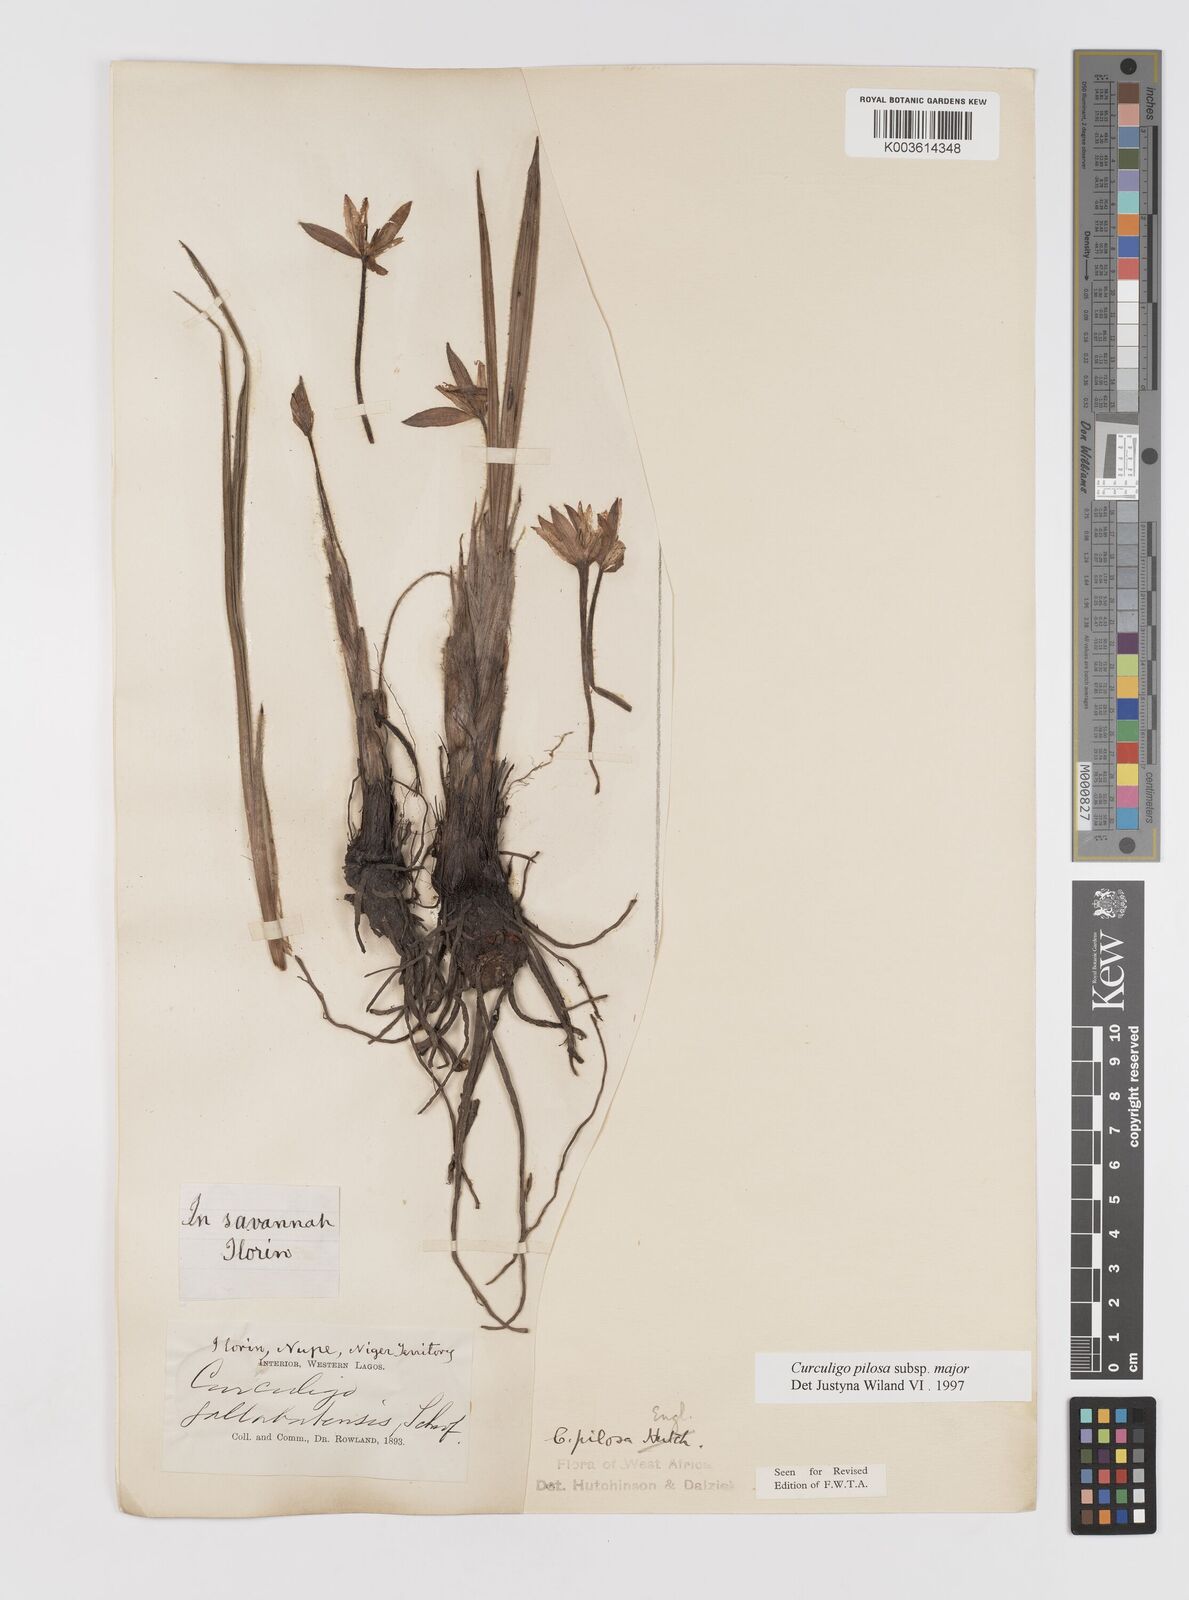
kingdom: Plantae
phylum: Tracheophyta
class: Liliopsida
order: Asparagales
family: Hypoxidaceae
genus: Curculigo
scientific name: Curculigo pilosa
